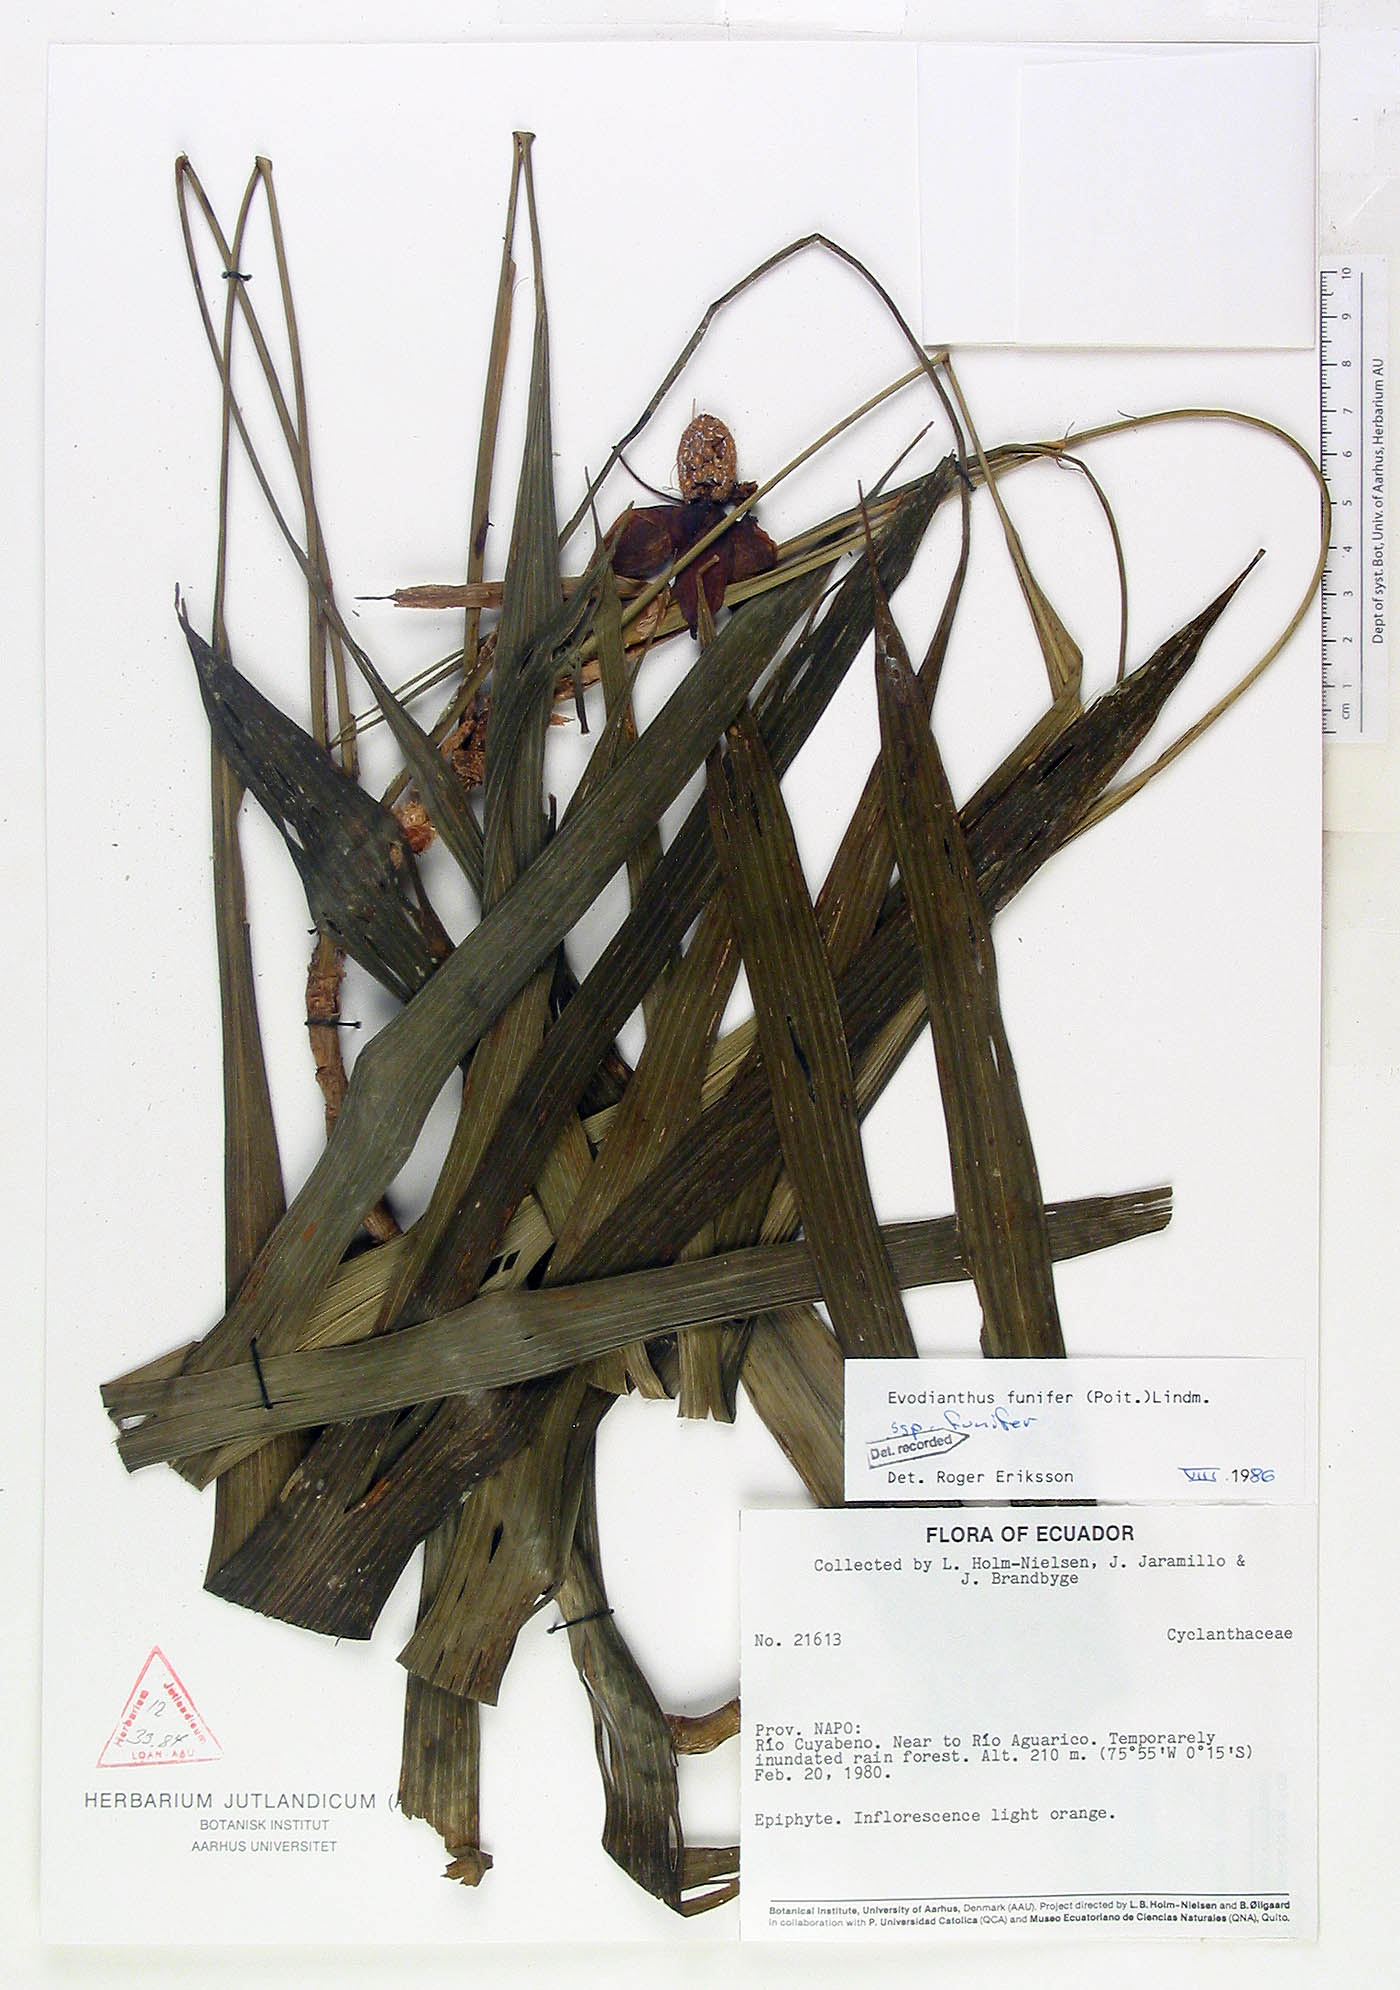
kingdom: Plantae
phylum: Tracheophyta
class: Liliopsida
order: Pandanales
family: Cyclanthaceae
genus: Evodianthus
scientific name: Evodianthus funifer
